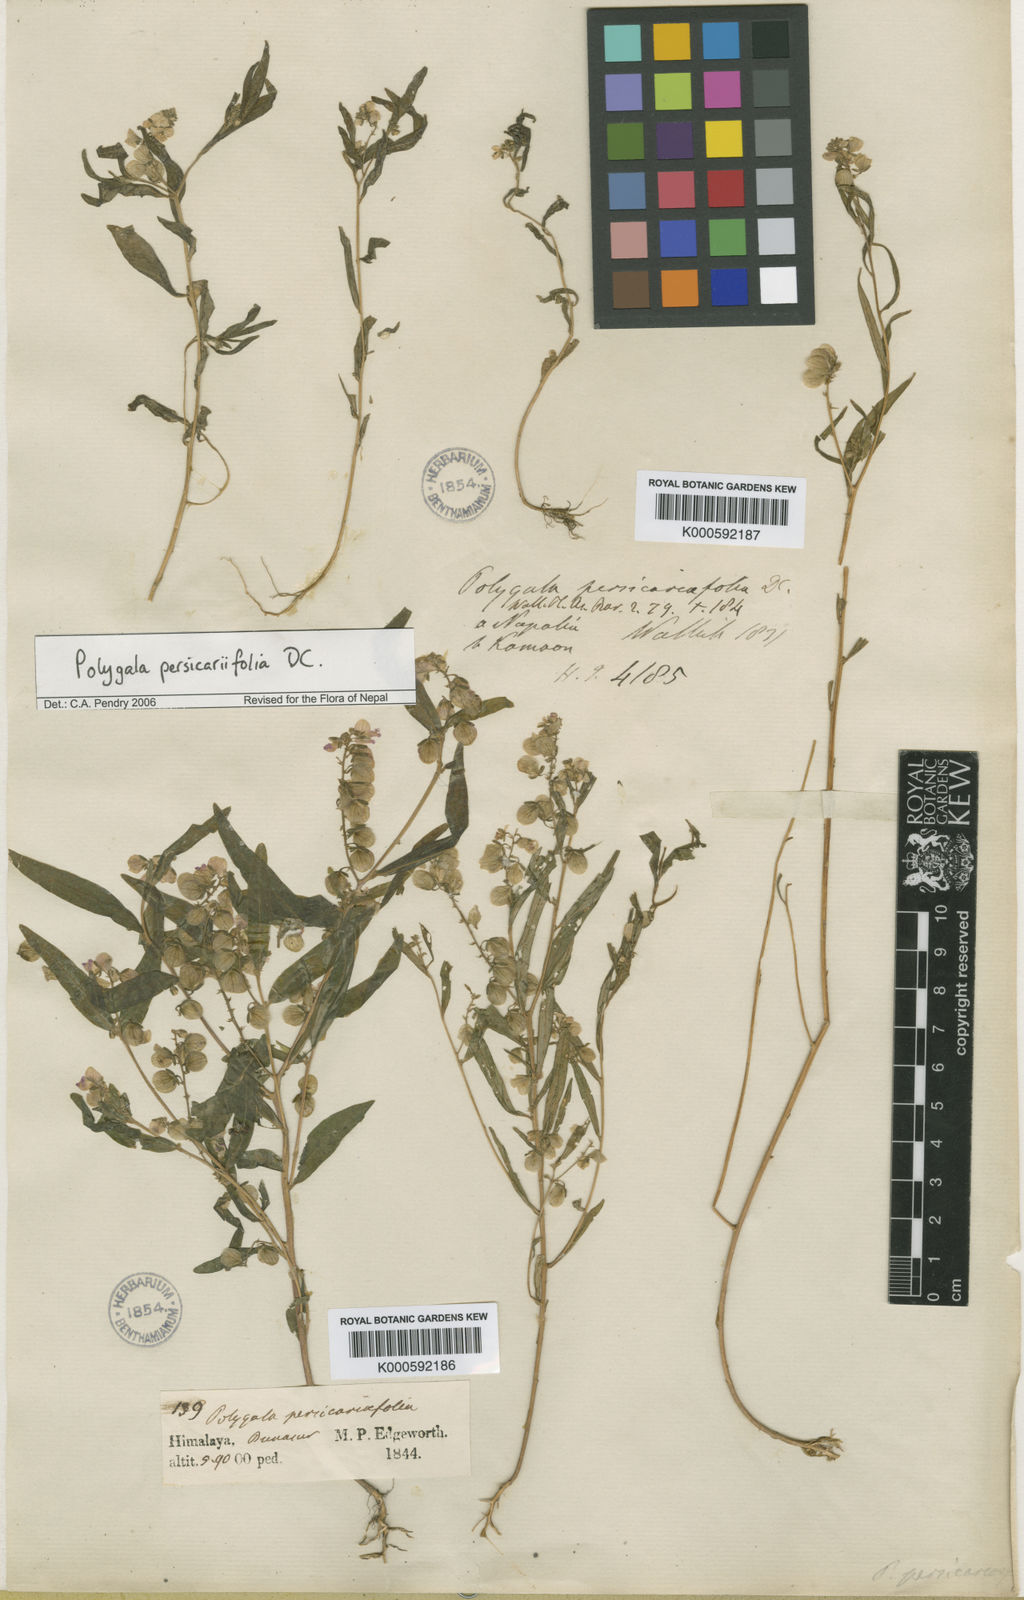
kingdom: Plantae
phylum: Tracheophyta
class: Magnoliopsida
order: Fabales
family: Polygalaceae
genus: Polygala
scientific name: Polygala persicariifolia
